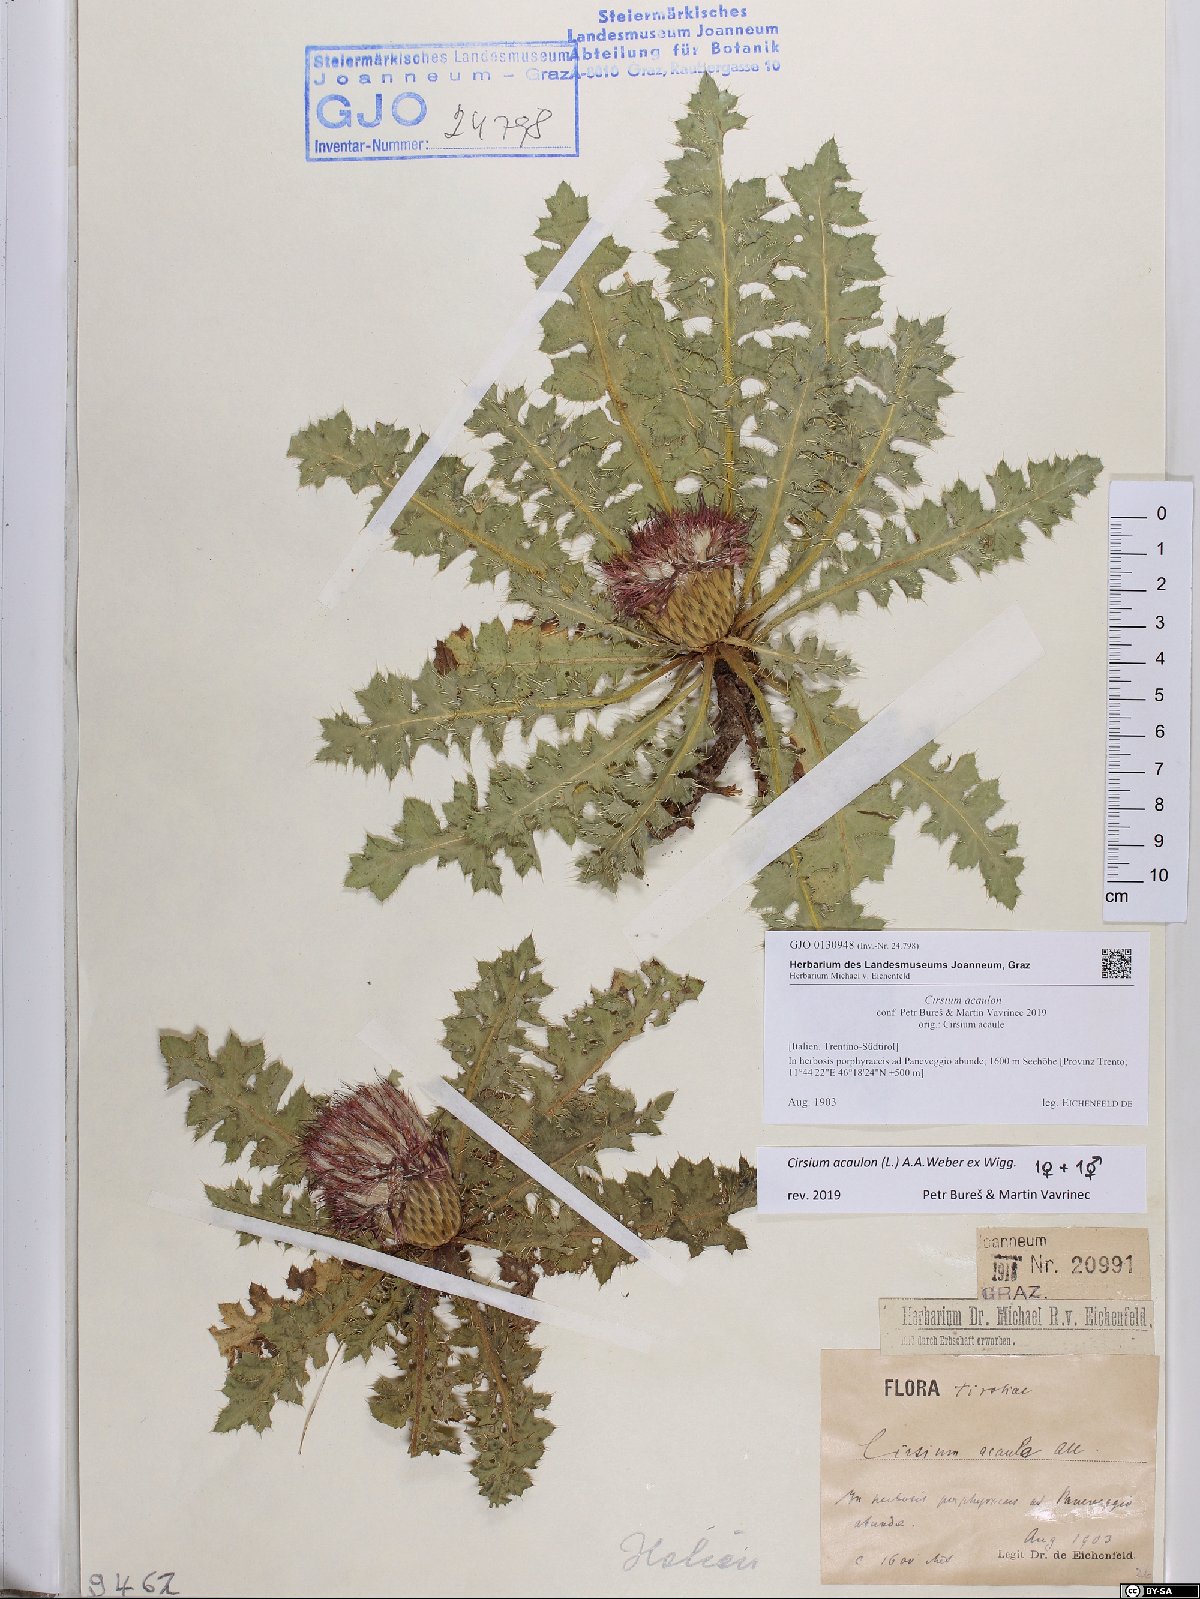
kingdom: Plantae
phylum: Tracheophyta
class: Magnoliopsida
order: Asterales
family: Asteraceae
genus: Cirsium
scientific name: Cirsium acaulon
